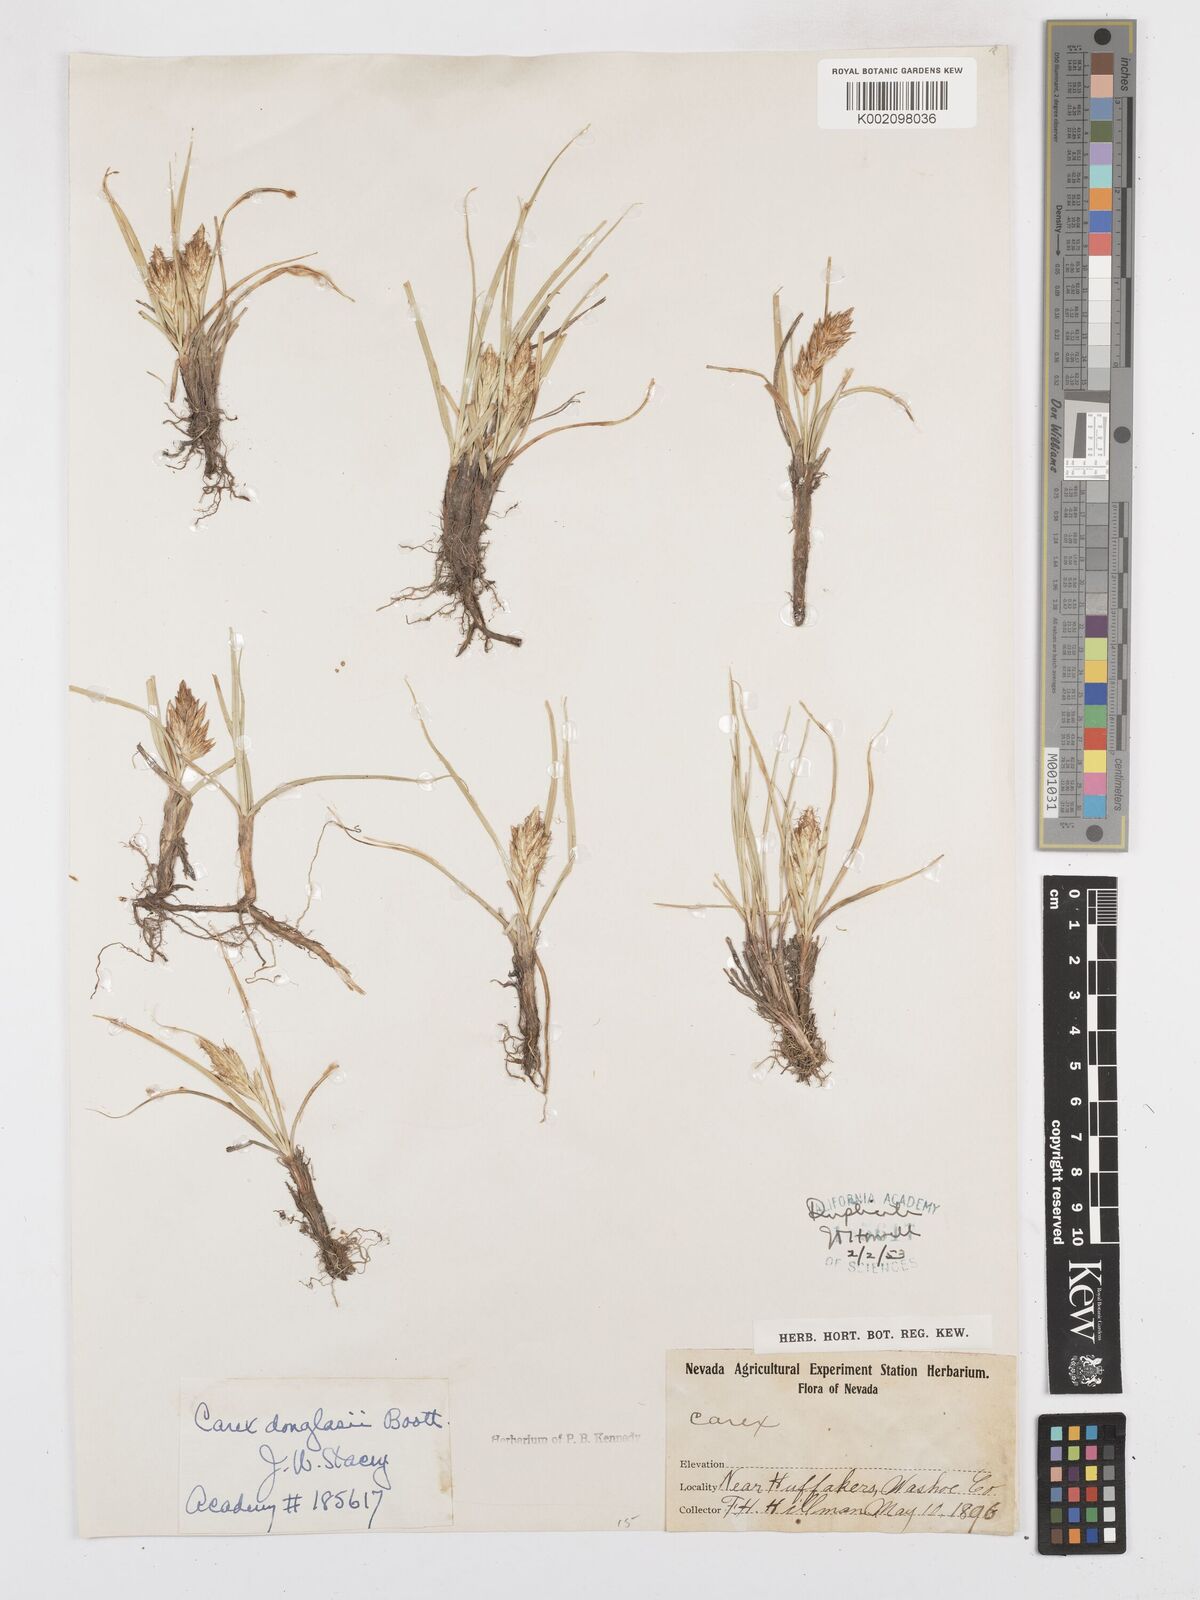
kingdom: Plantae
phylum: Tracheophyta
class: Liliopsida
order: Poales
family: Cyperaceae
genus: Carex
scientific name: Carex douglasii
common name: Douglas' sedge
